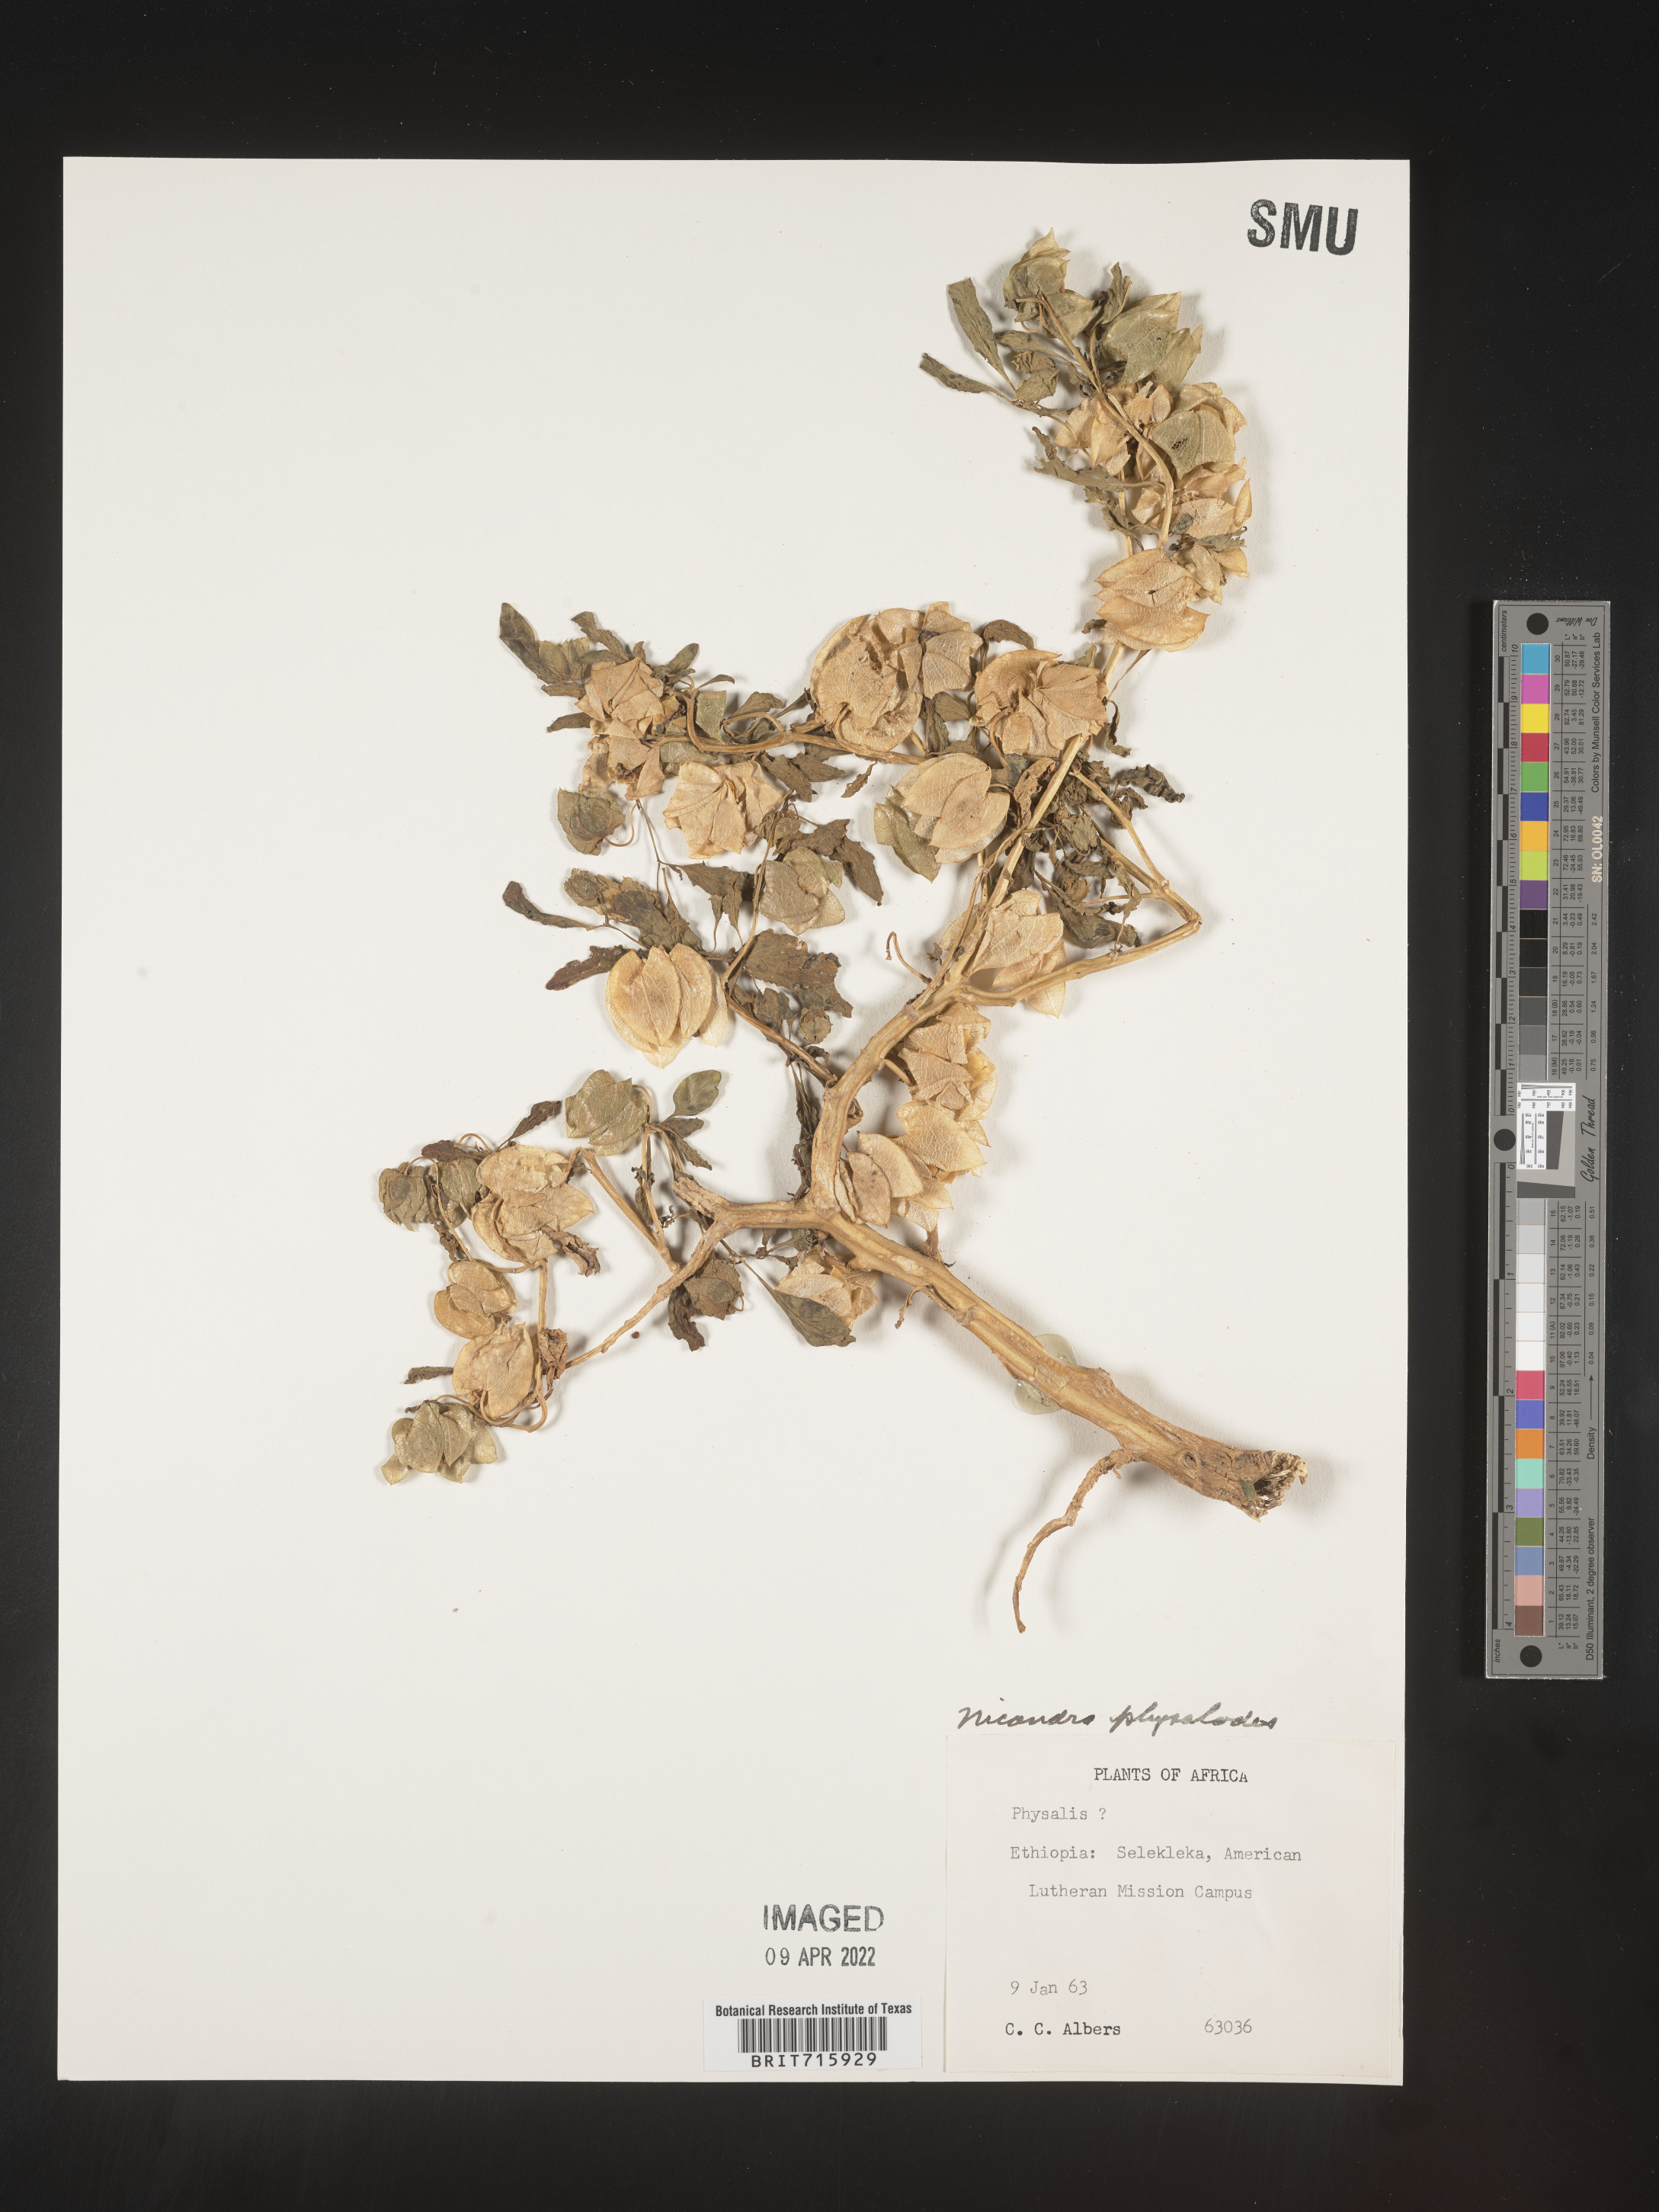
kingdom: Plantae
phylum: Tracheophyta
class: Magnoliopsida
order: Solanales
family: Solanaceae
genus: Nicandra
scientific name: Nicandra
